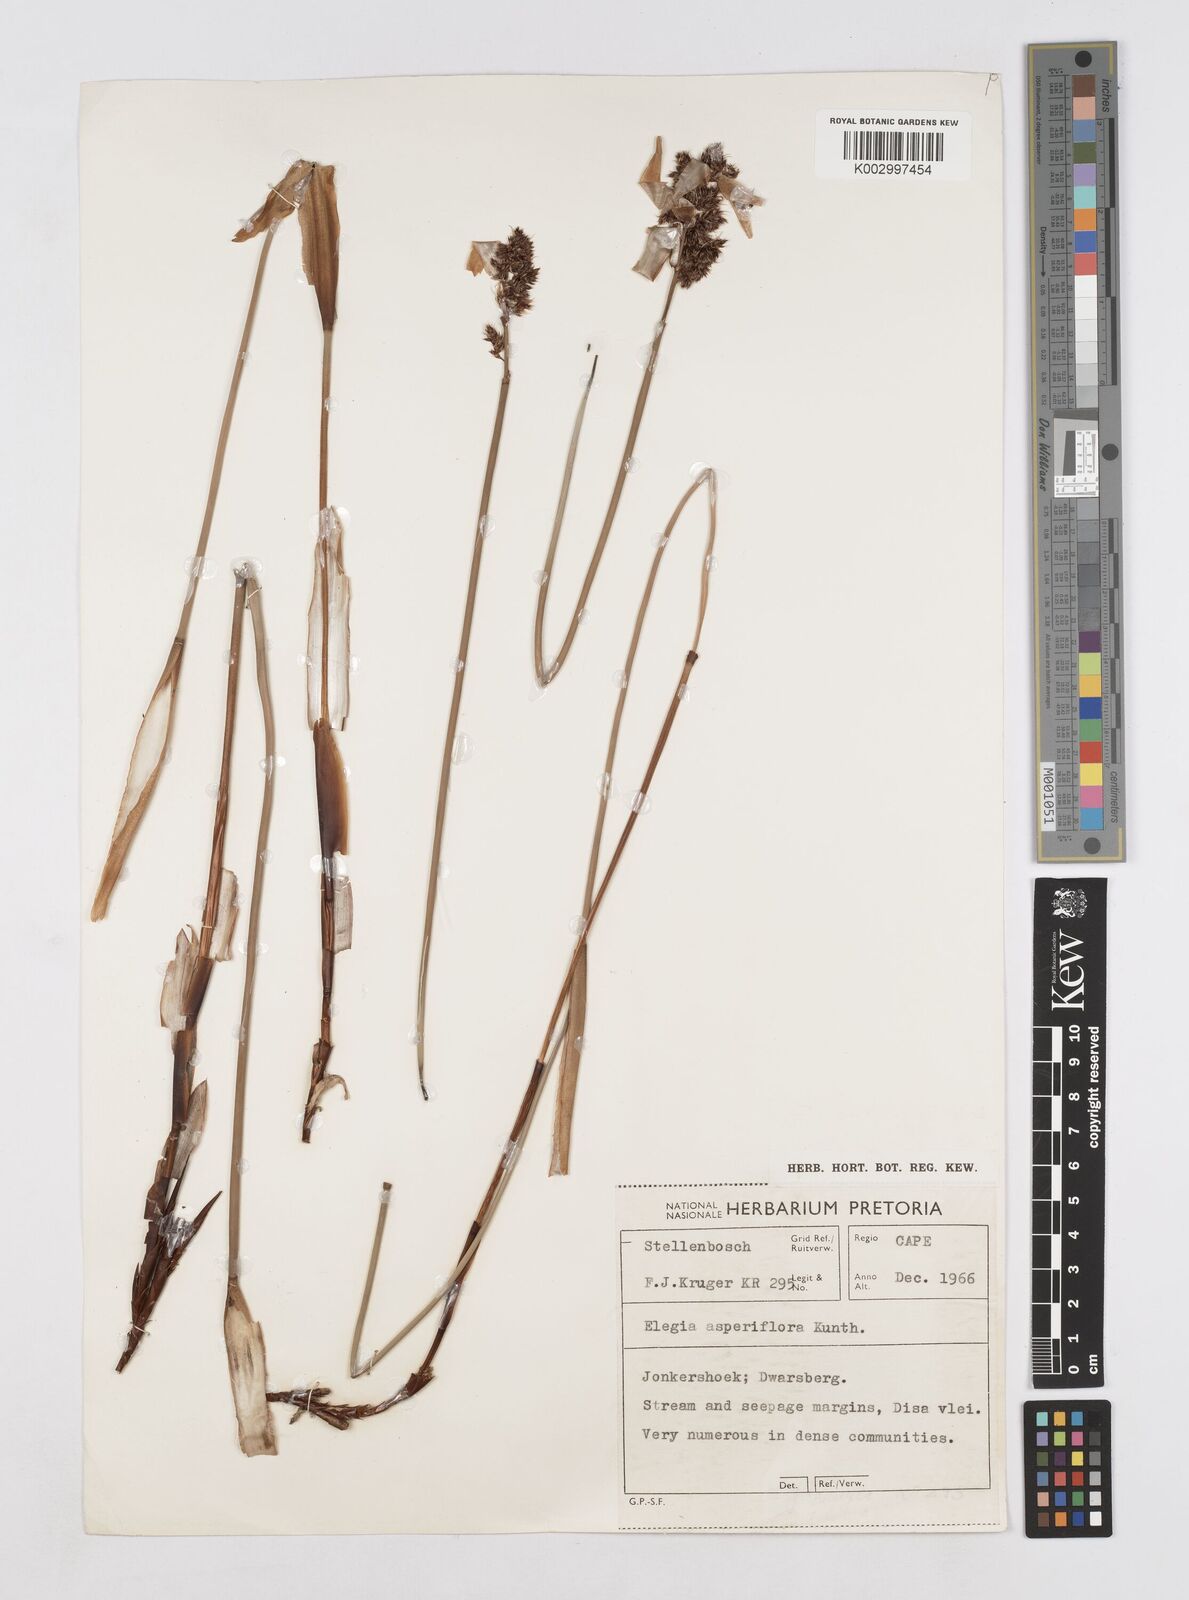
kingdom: Plantae
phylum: Tracheophyta
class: Liliopsida
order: Poales
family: Restionaceae
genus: Elegia
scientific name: Elegia asperiflora
